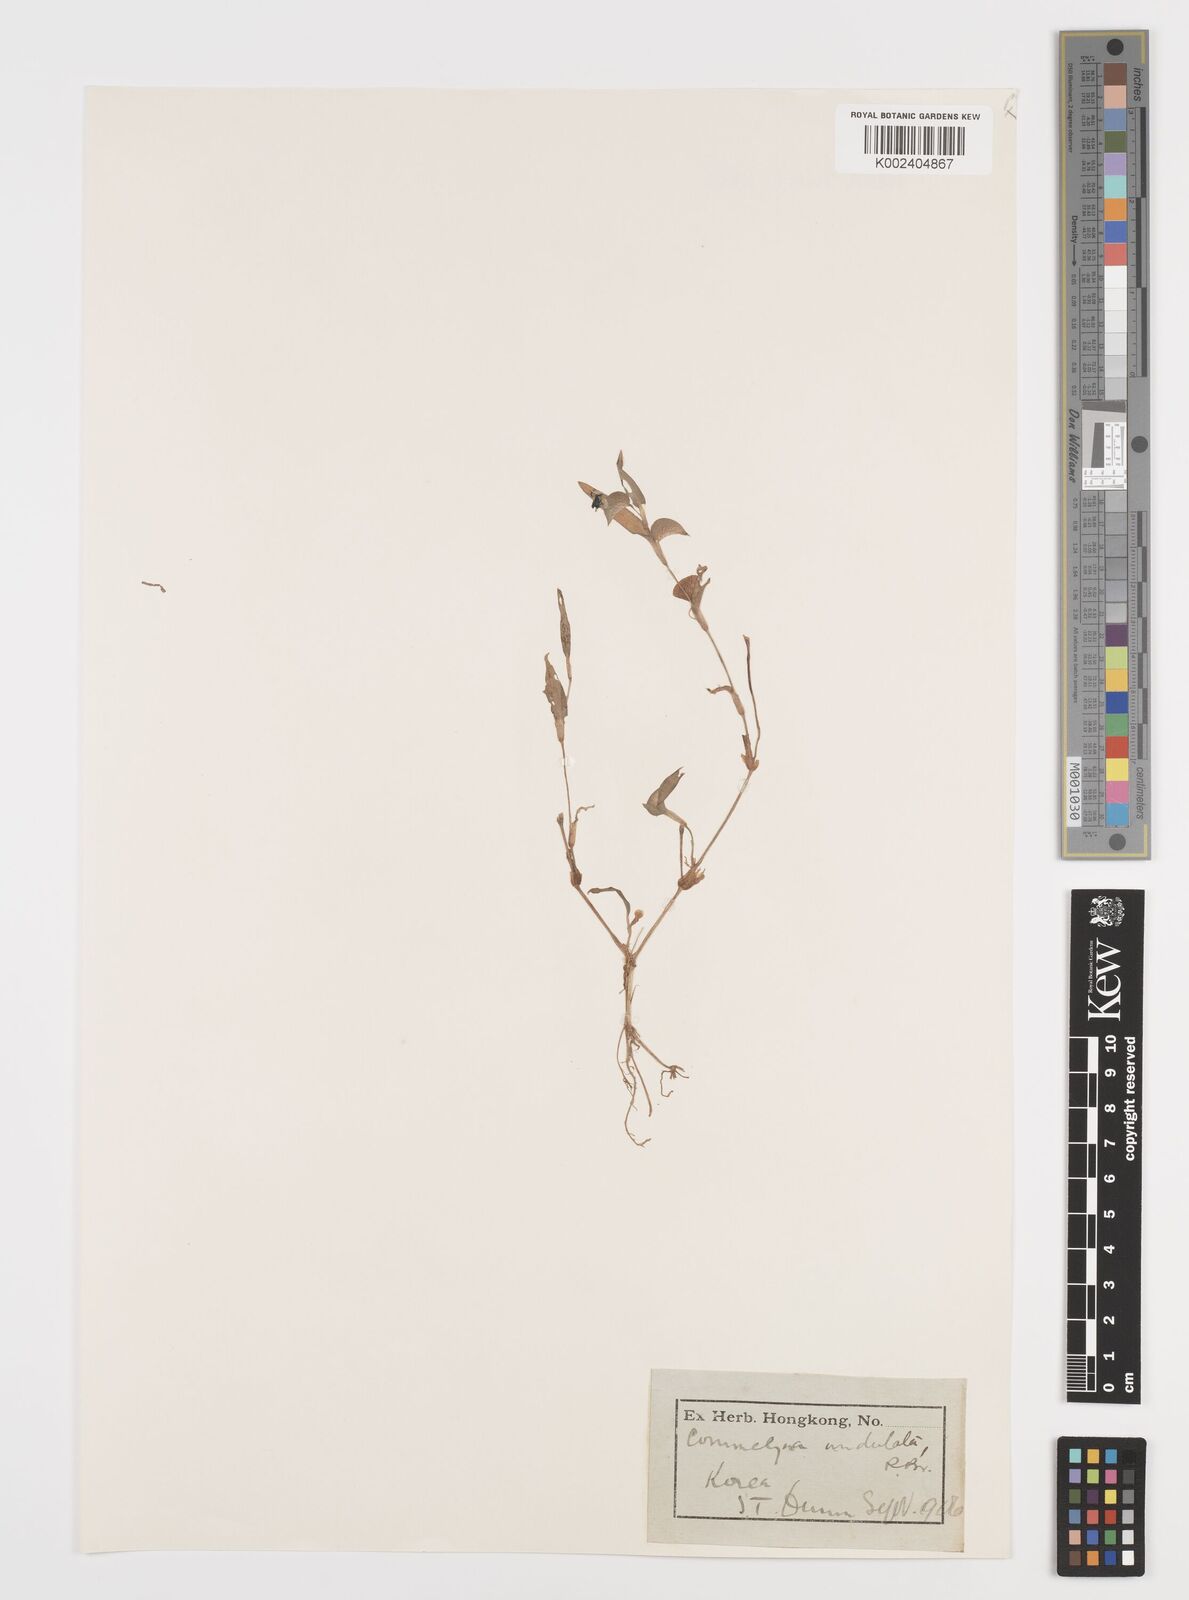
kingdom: Plantae
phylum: Tracheophyta
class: Liliopsida
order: Commelinales
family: Commelinaceae
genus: Commelina
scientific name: Commelina undulata
